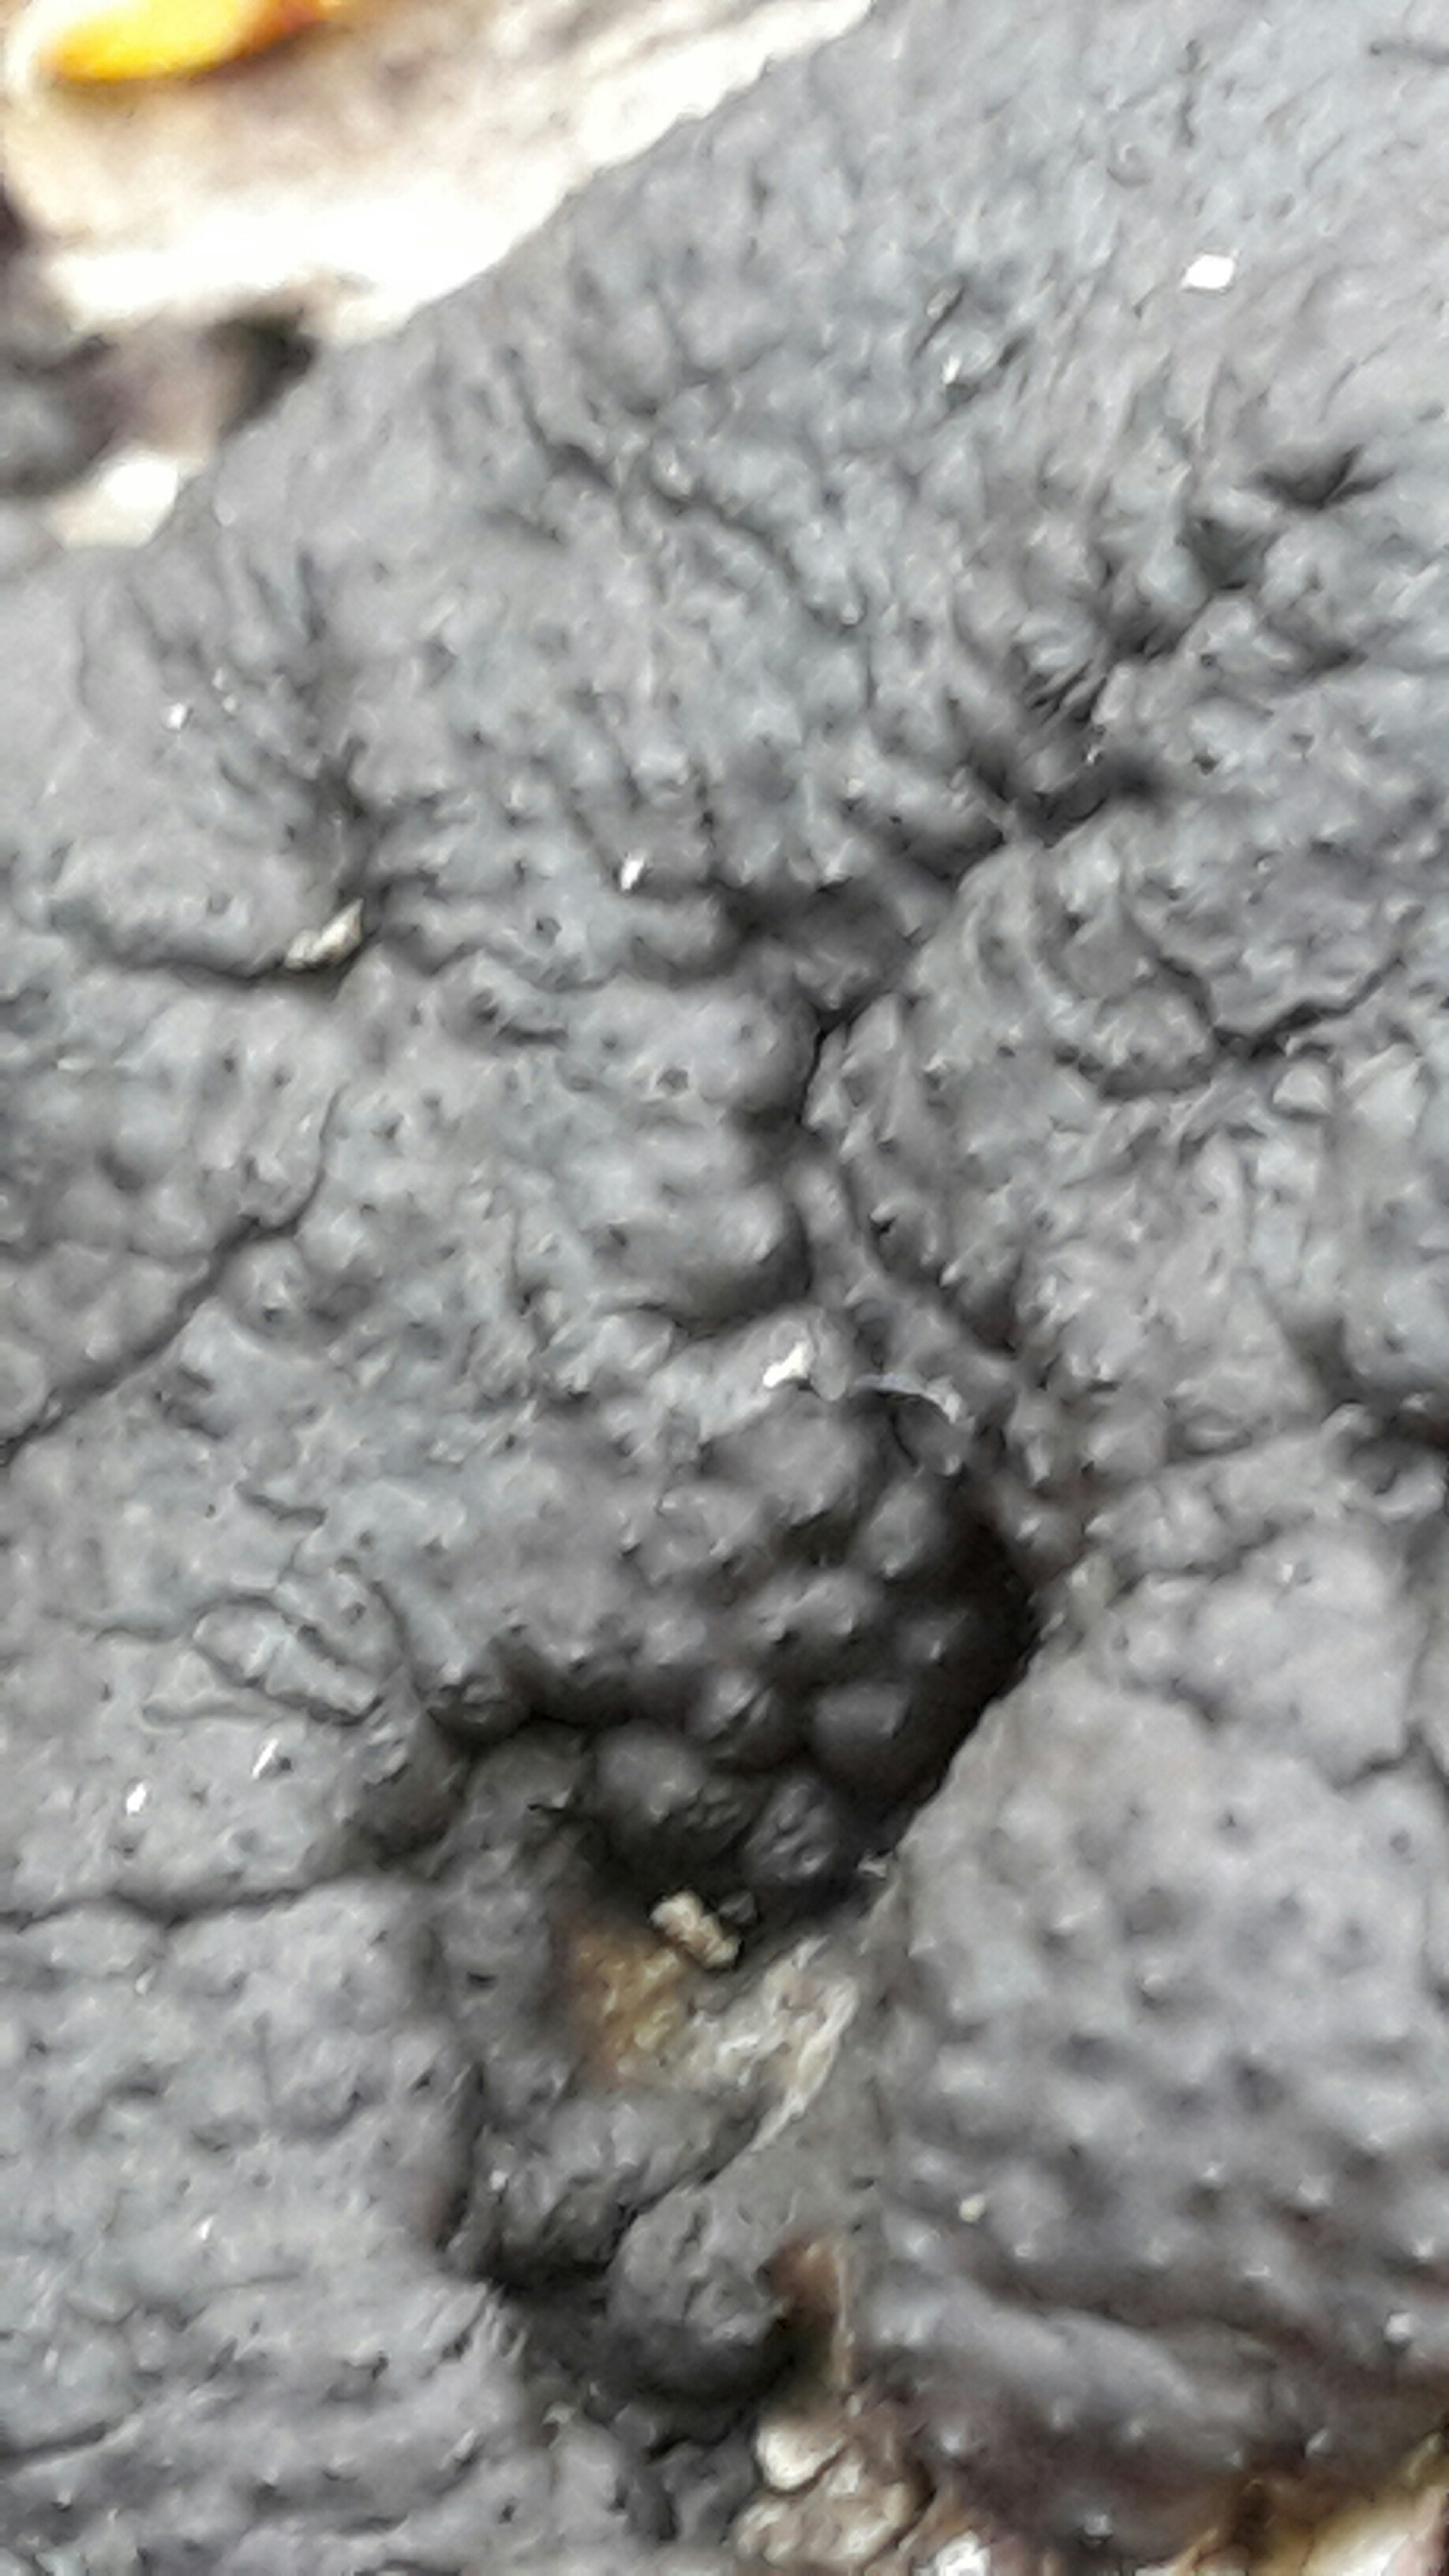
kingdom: Fungi
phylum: Ascomycota
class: Sordariomycetes
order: Xylariales
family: Hypoxylaceae
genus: Jackrogersella
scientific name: Jackrogersella multiformis
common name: foranderlig kulbær
